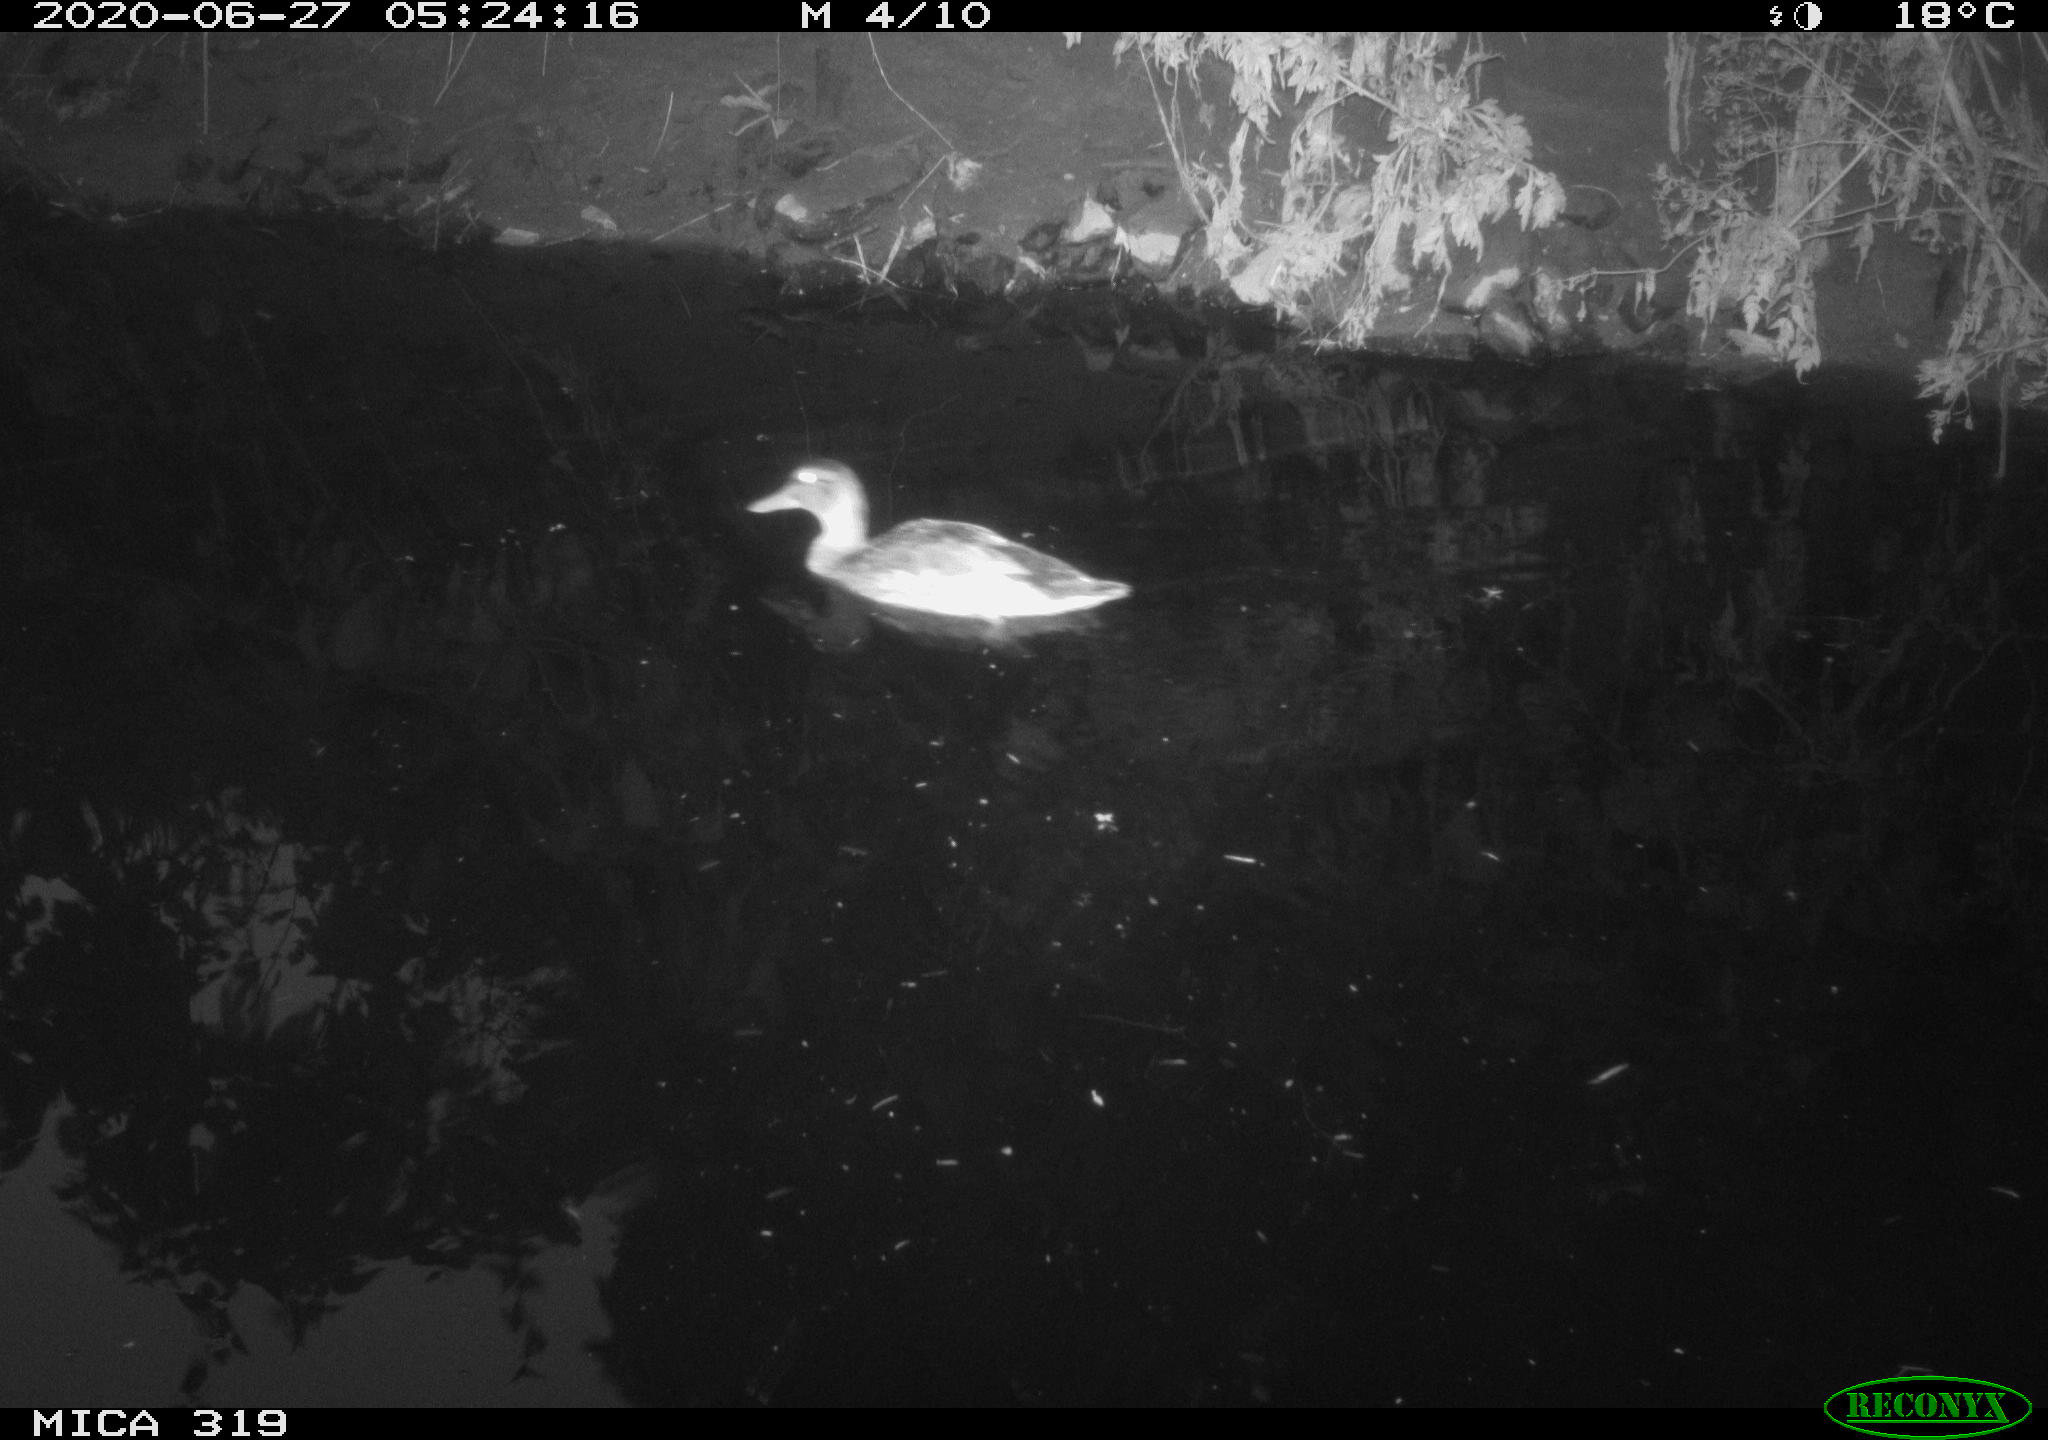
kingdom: Animalia
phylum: Chordata
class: Aves
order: Anseriformes
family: Anatidae
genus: Anas
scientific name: Anas platyrhynchos
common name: Mallard
